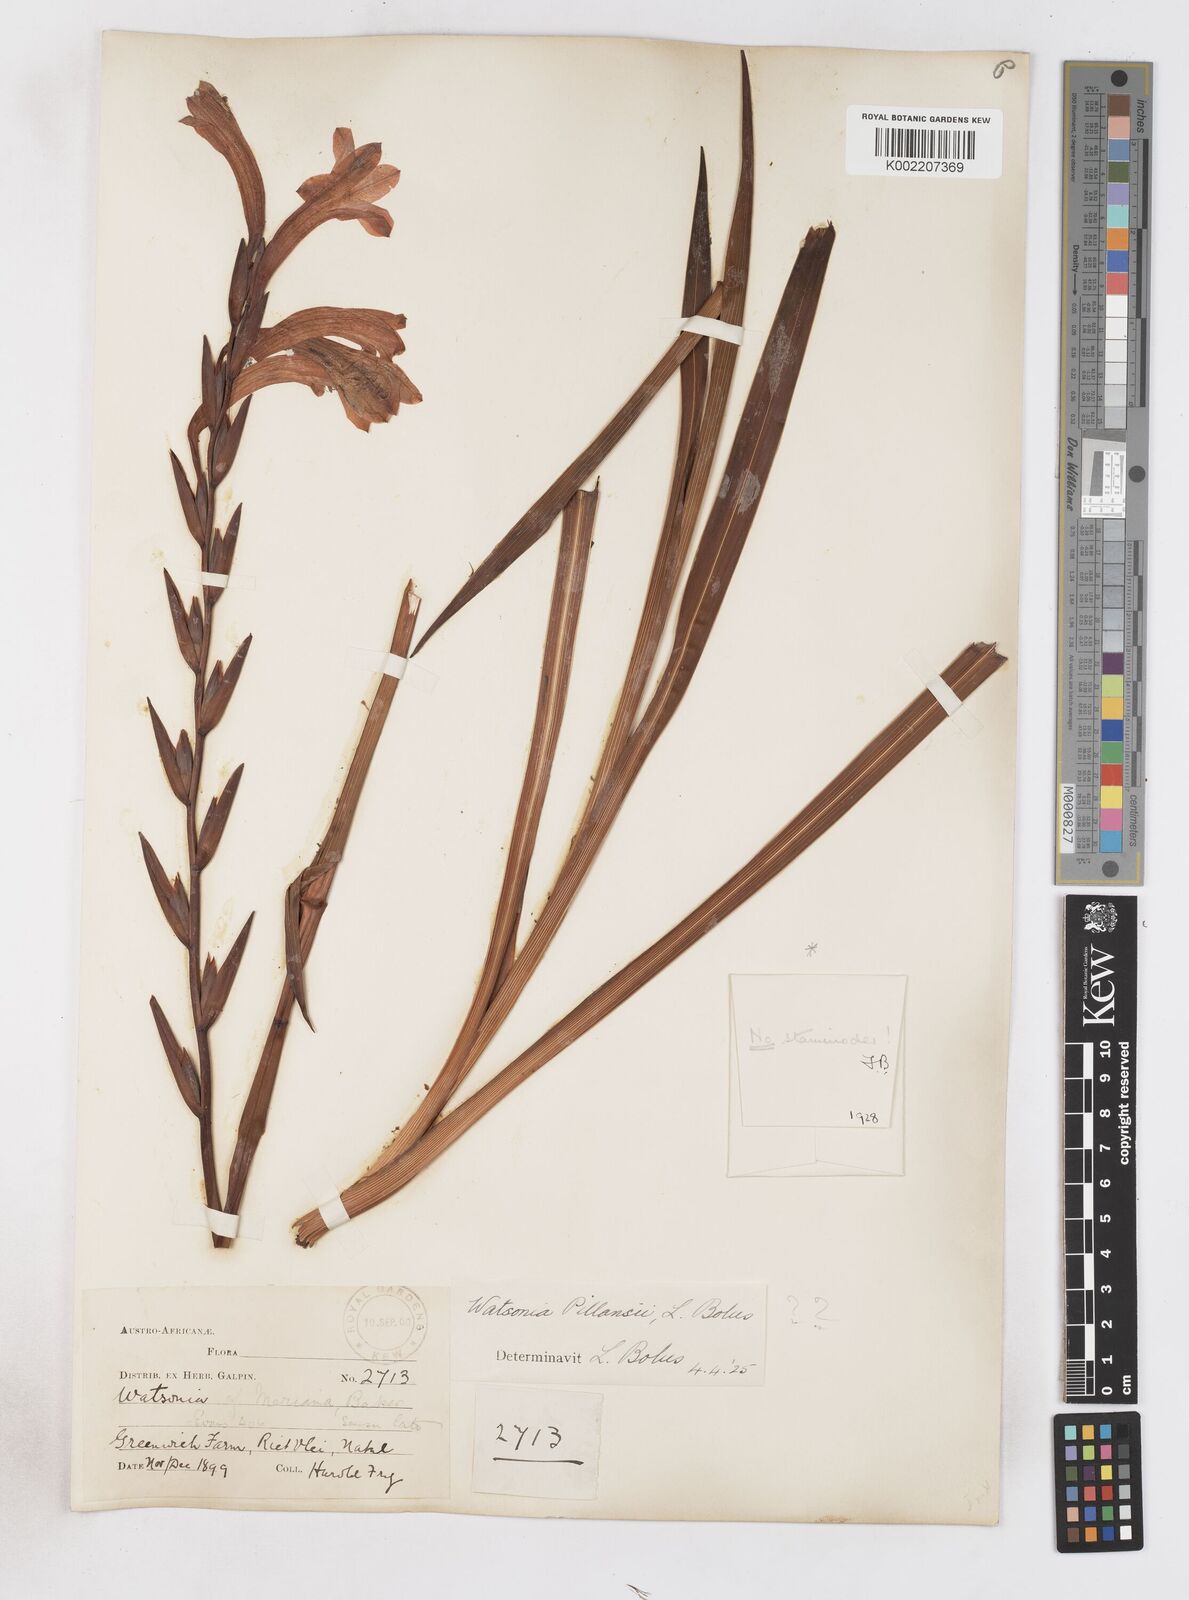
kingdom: Plantae
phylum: Tracheophyta
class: Liliopsida
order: Asparagales
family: Iridaceae
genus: Watsonia
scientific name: Watsonia pillansii
